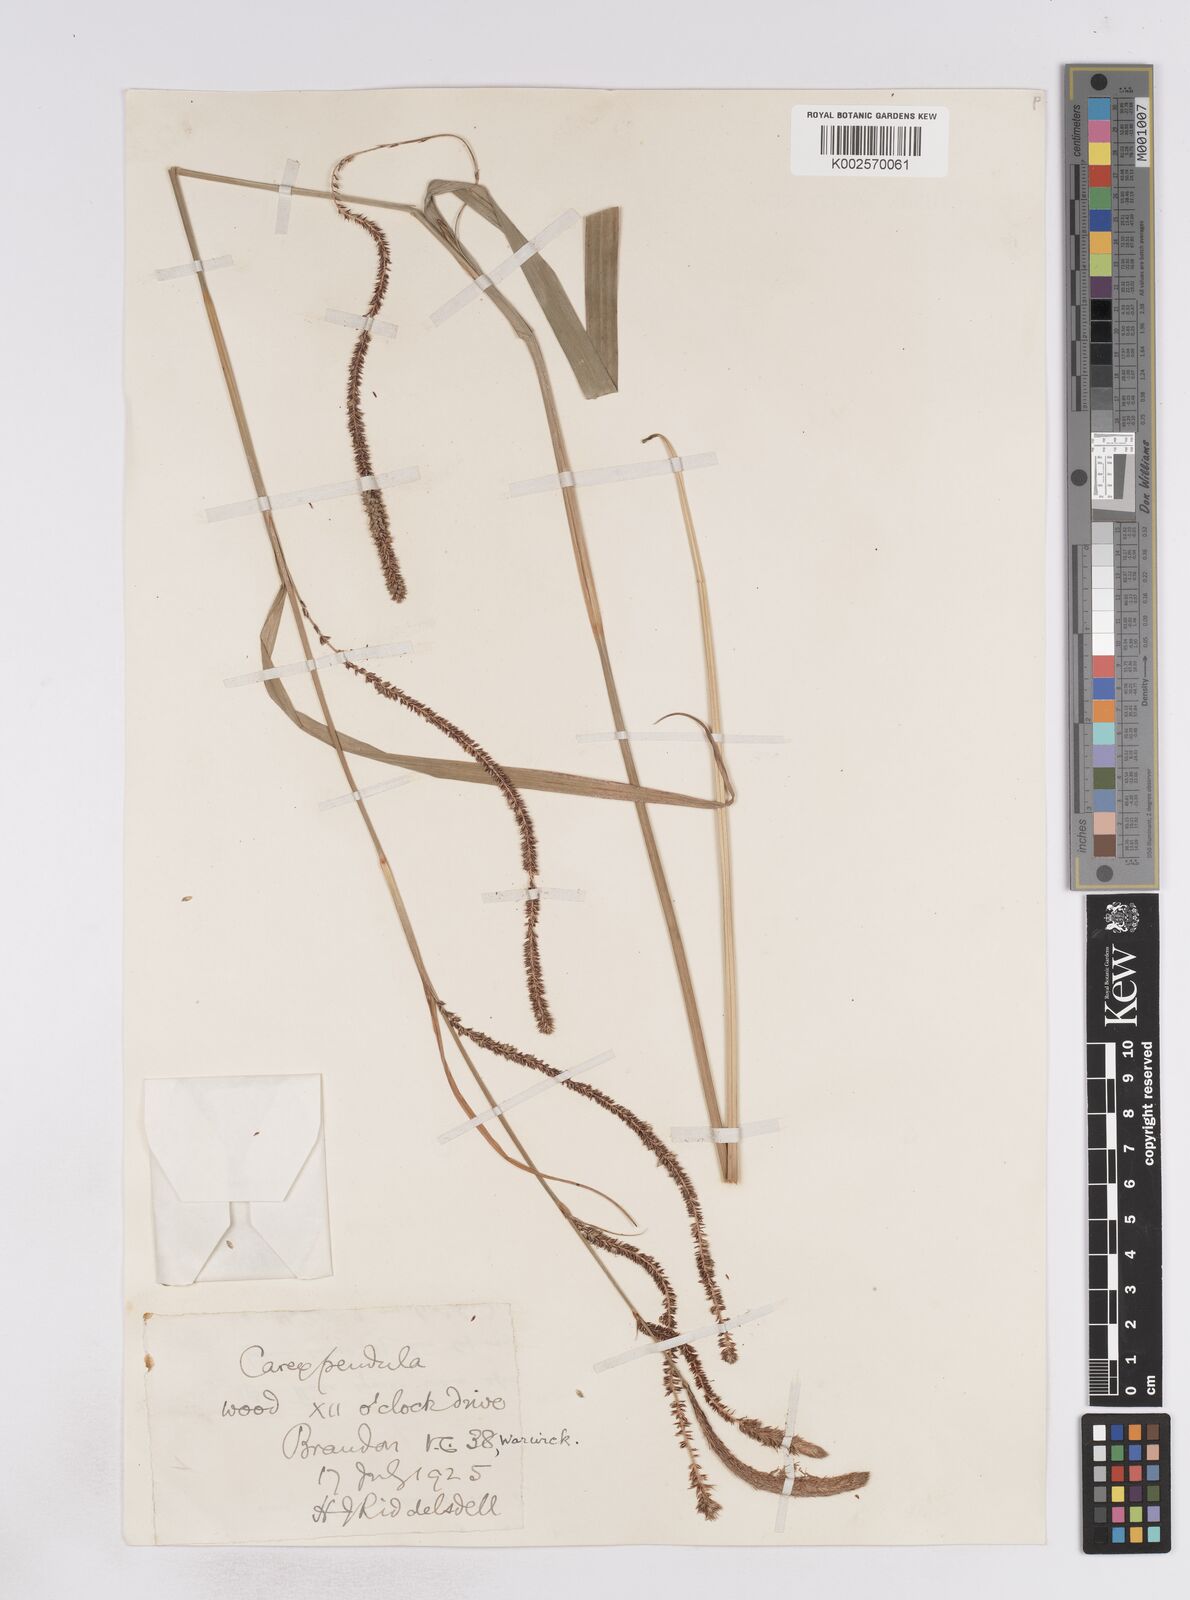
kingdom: Plantae
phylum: Tracheophyta
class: Liliopsida
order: Poales
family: Cyperaceae
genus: Carex
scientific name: Carex pendula
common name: Pendulous sedge
